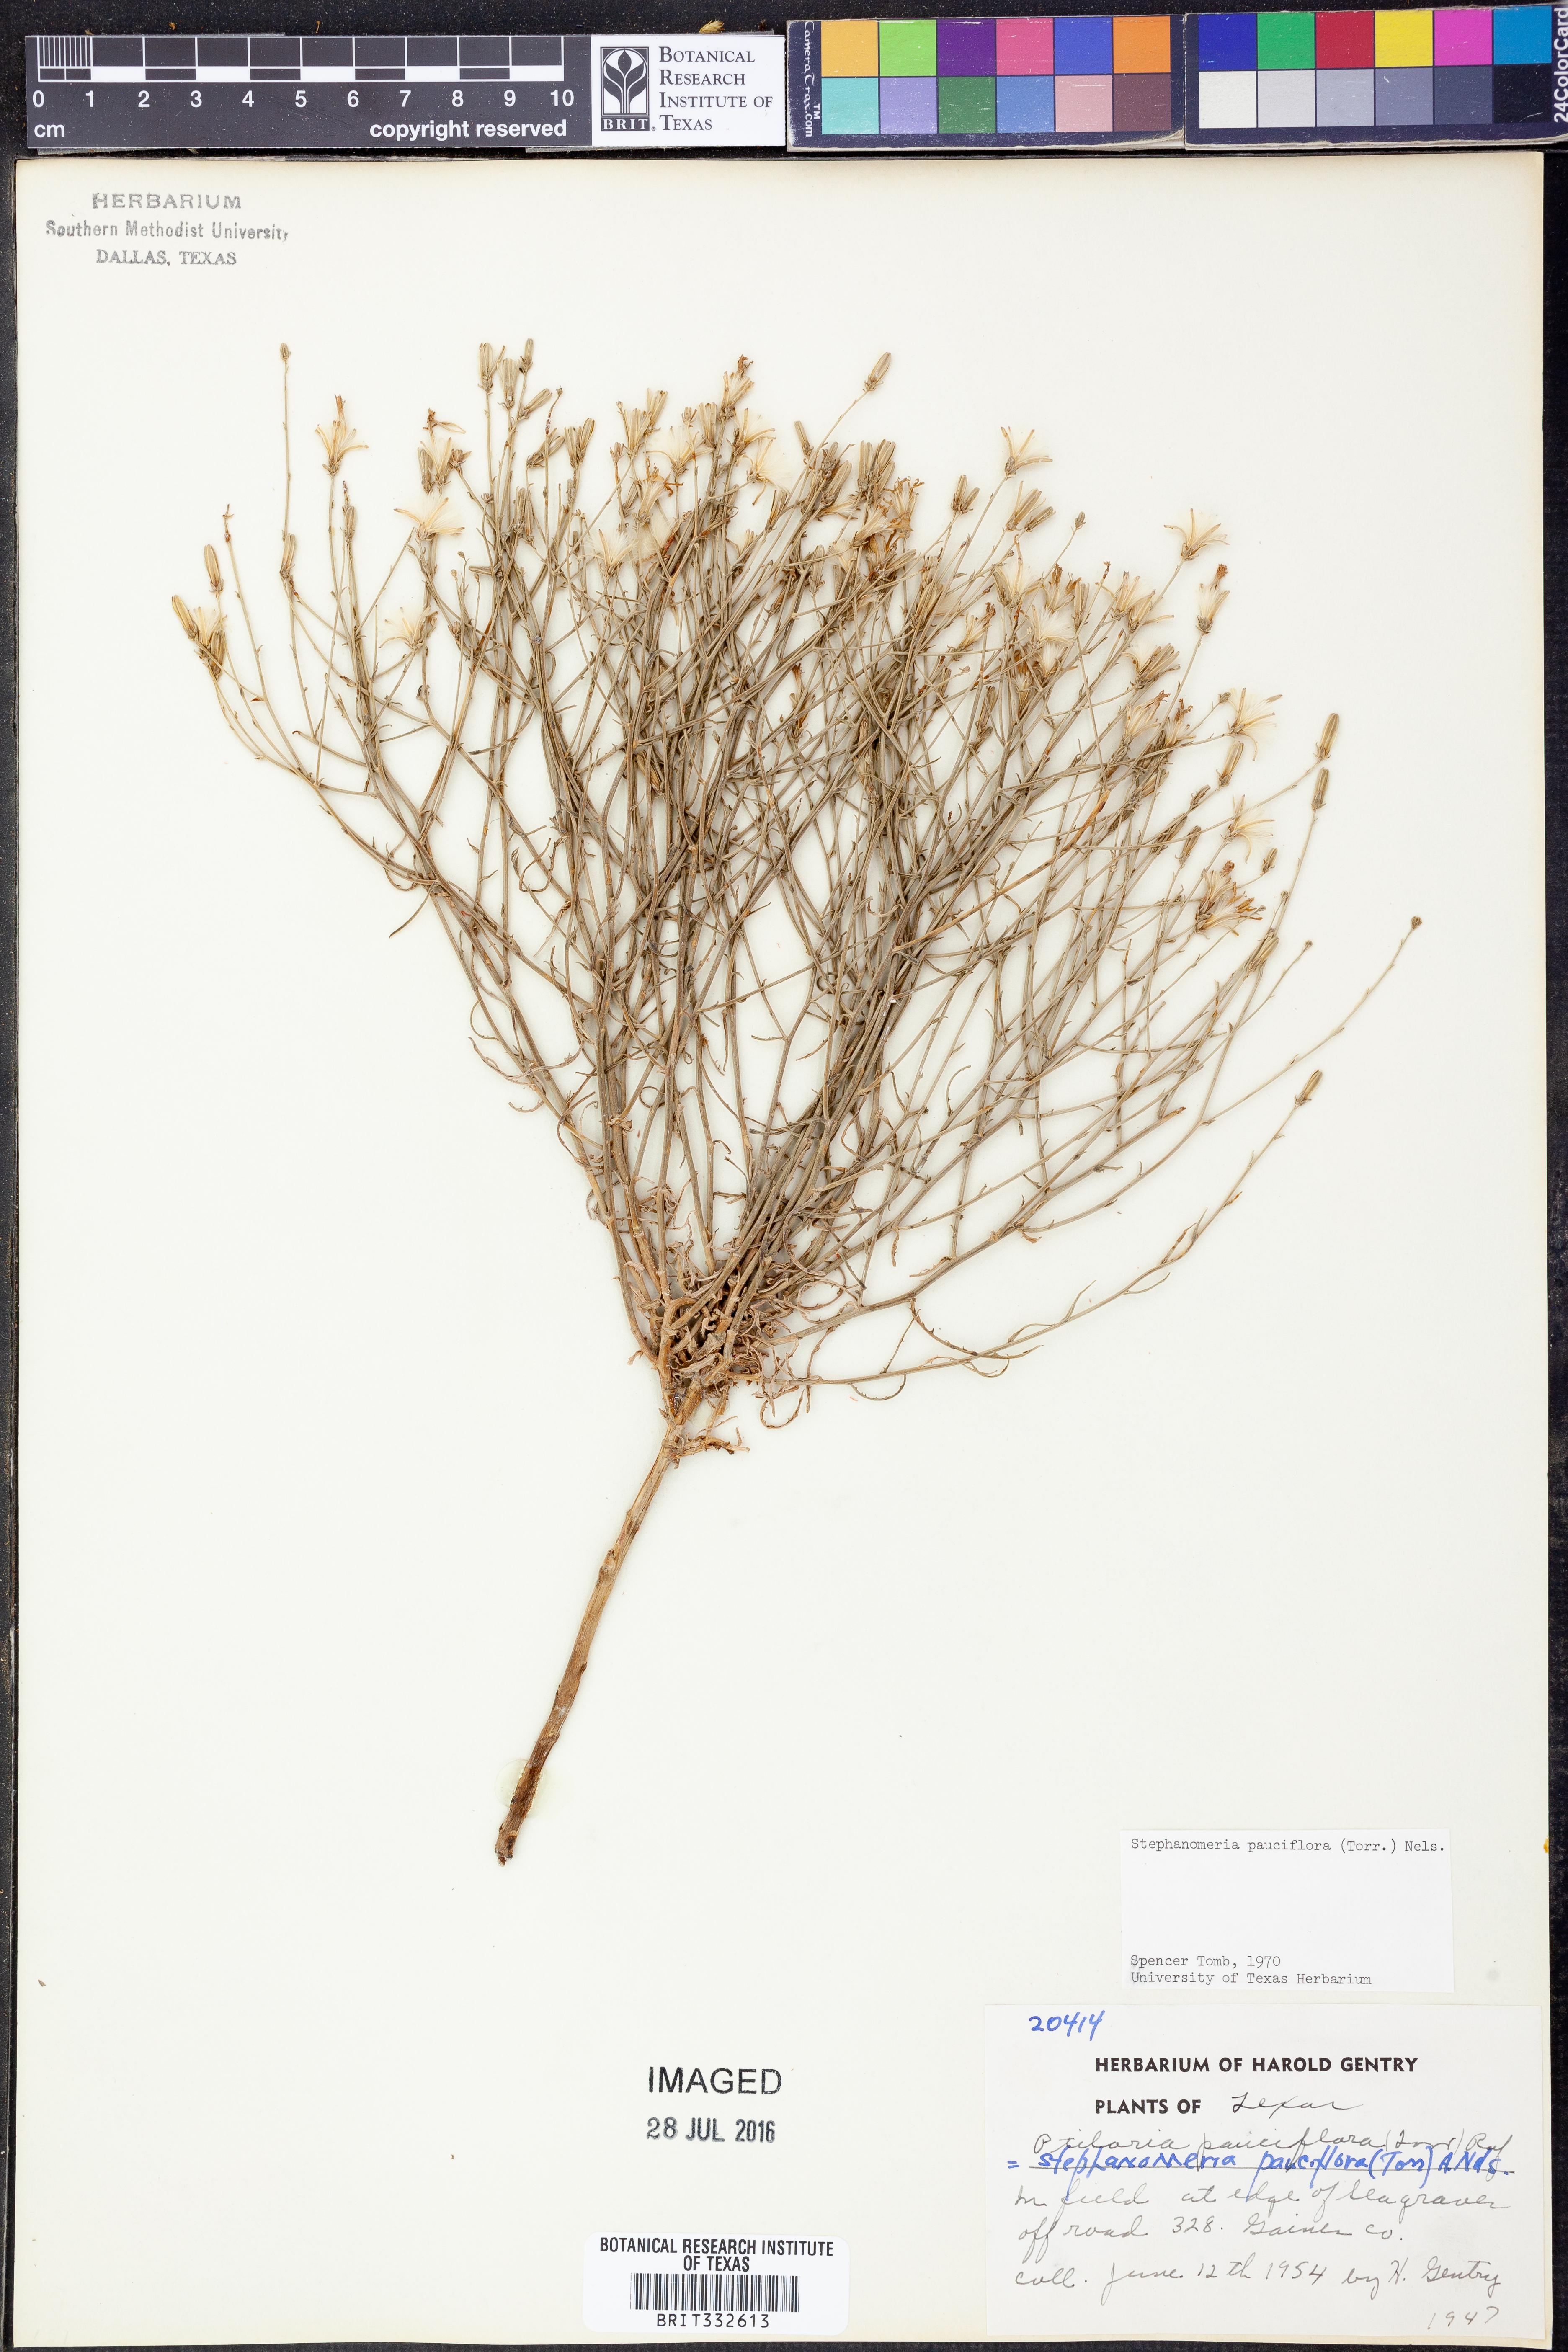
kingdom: Plantae
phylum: Tracheophyta
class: Magnoliopsida
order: Asterales
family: Asteraceae
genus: Stephanomeria
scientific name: Stephanomeria pauciflora
